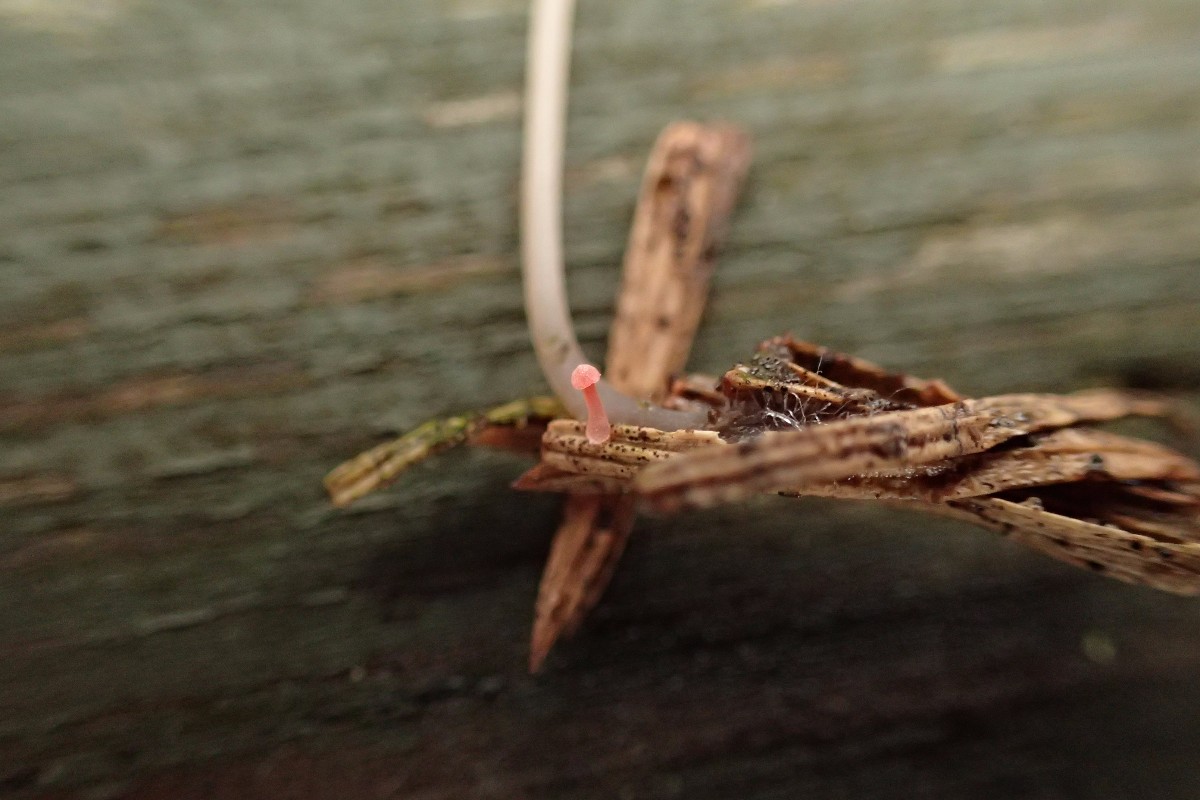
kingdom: Fungi
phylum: Basidiomycota
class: Agaricomycetes
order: Agaricales
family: Mycenaceae
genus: Mycena
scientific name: Mycena coccinea
